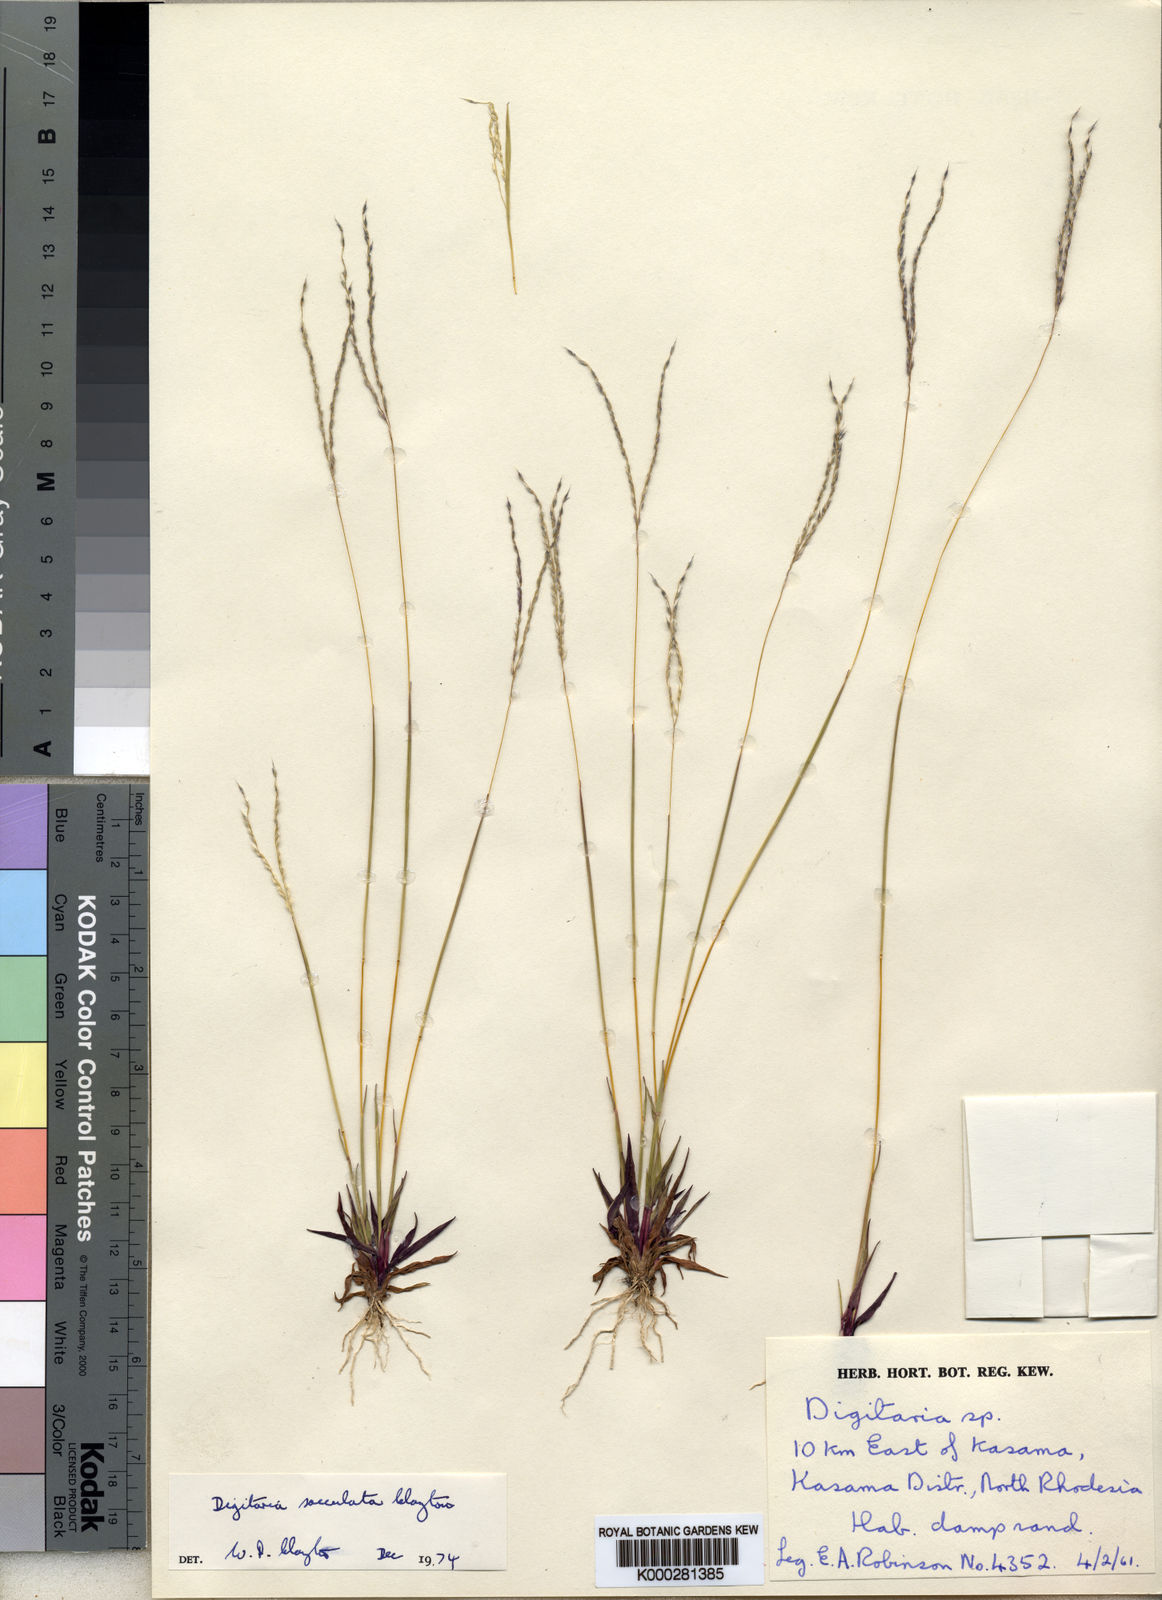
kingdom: Plantae
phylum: Tracheophyta
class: Liliopsida
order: Poales
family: Poaceae
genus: Digitaria
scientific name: Digitaria sacculata
